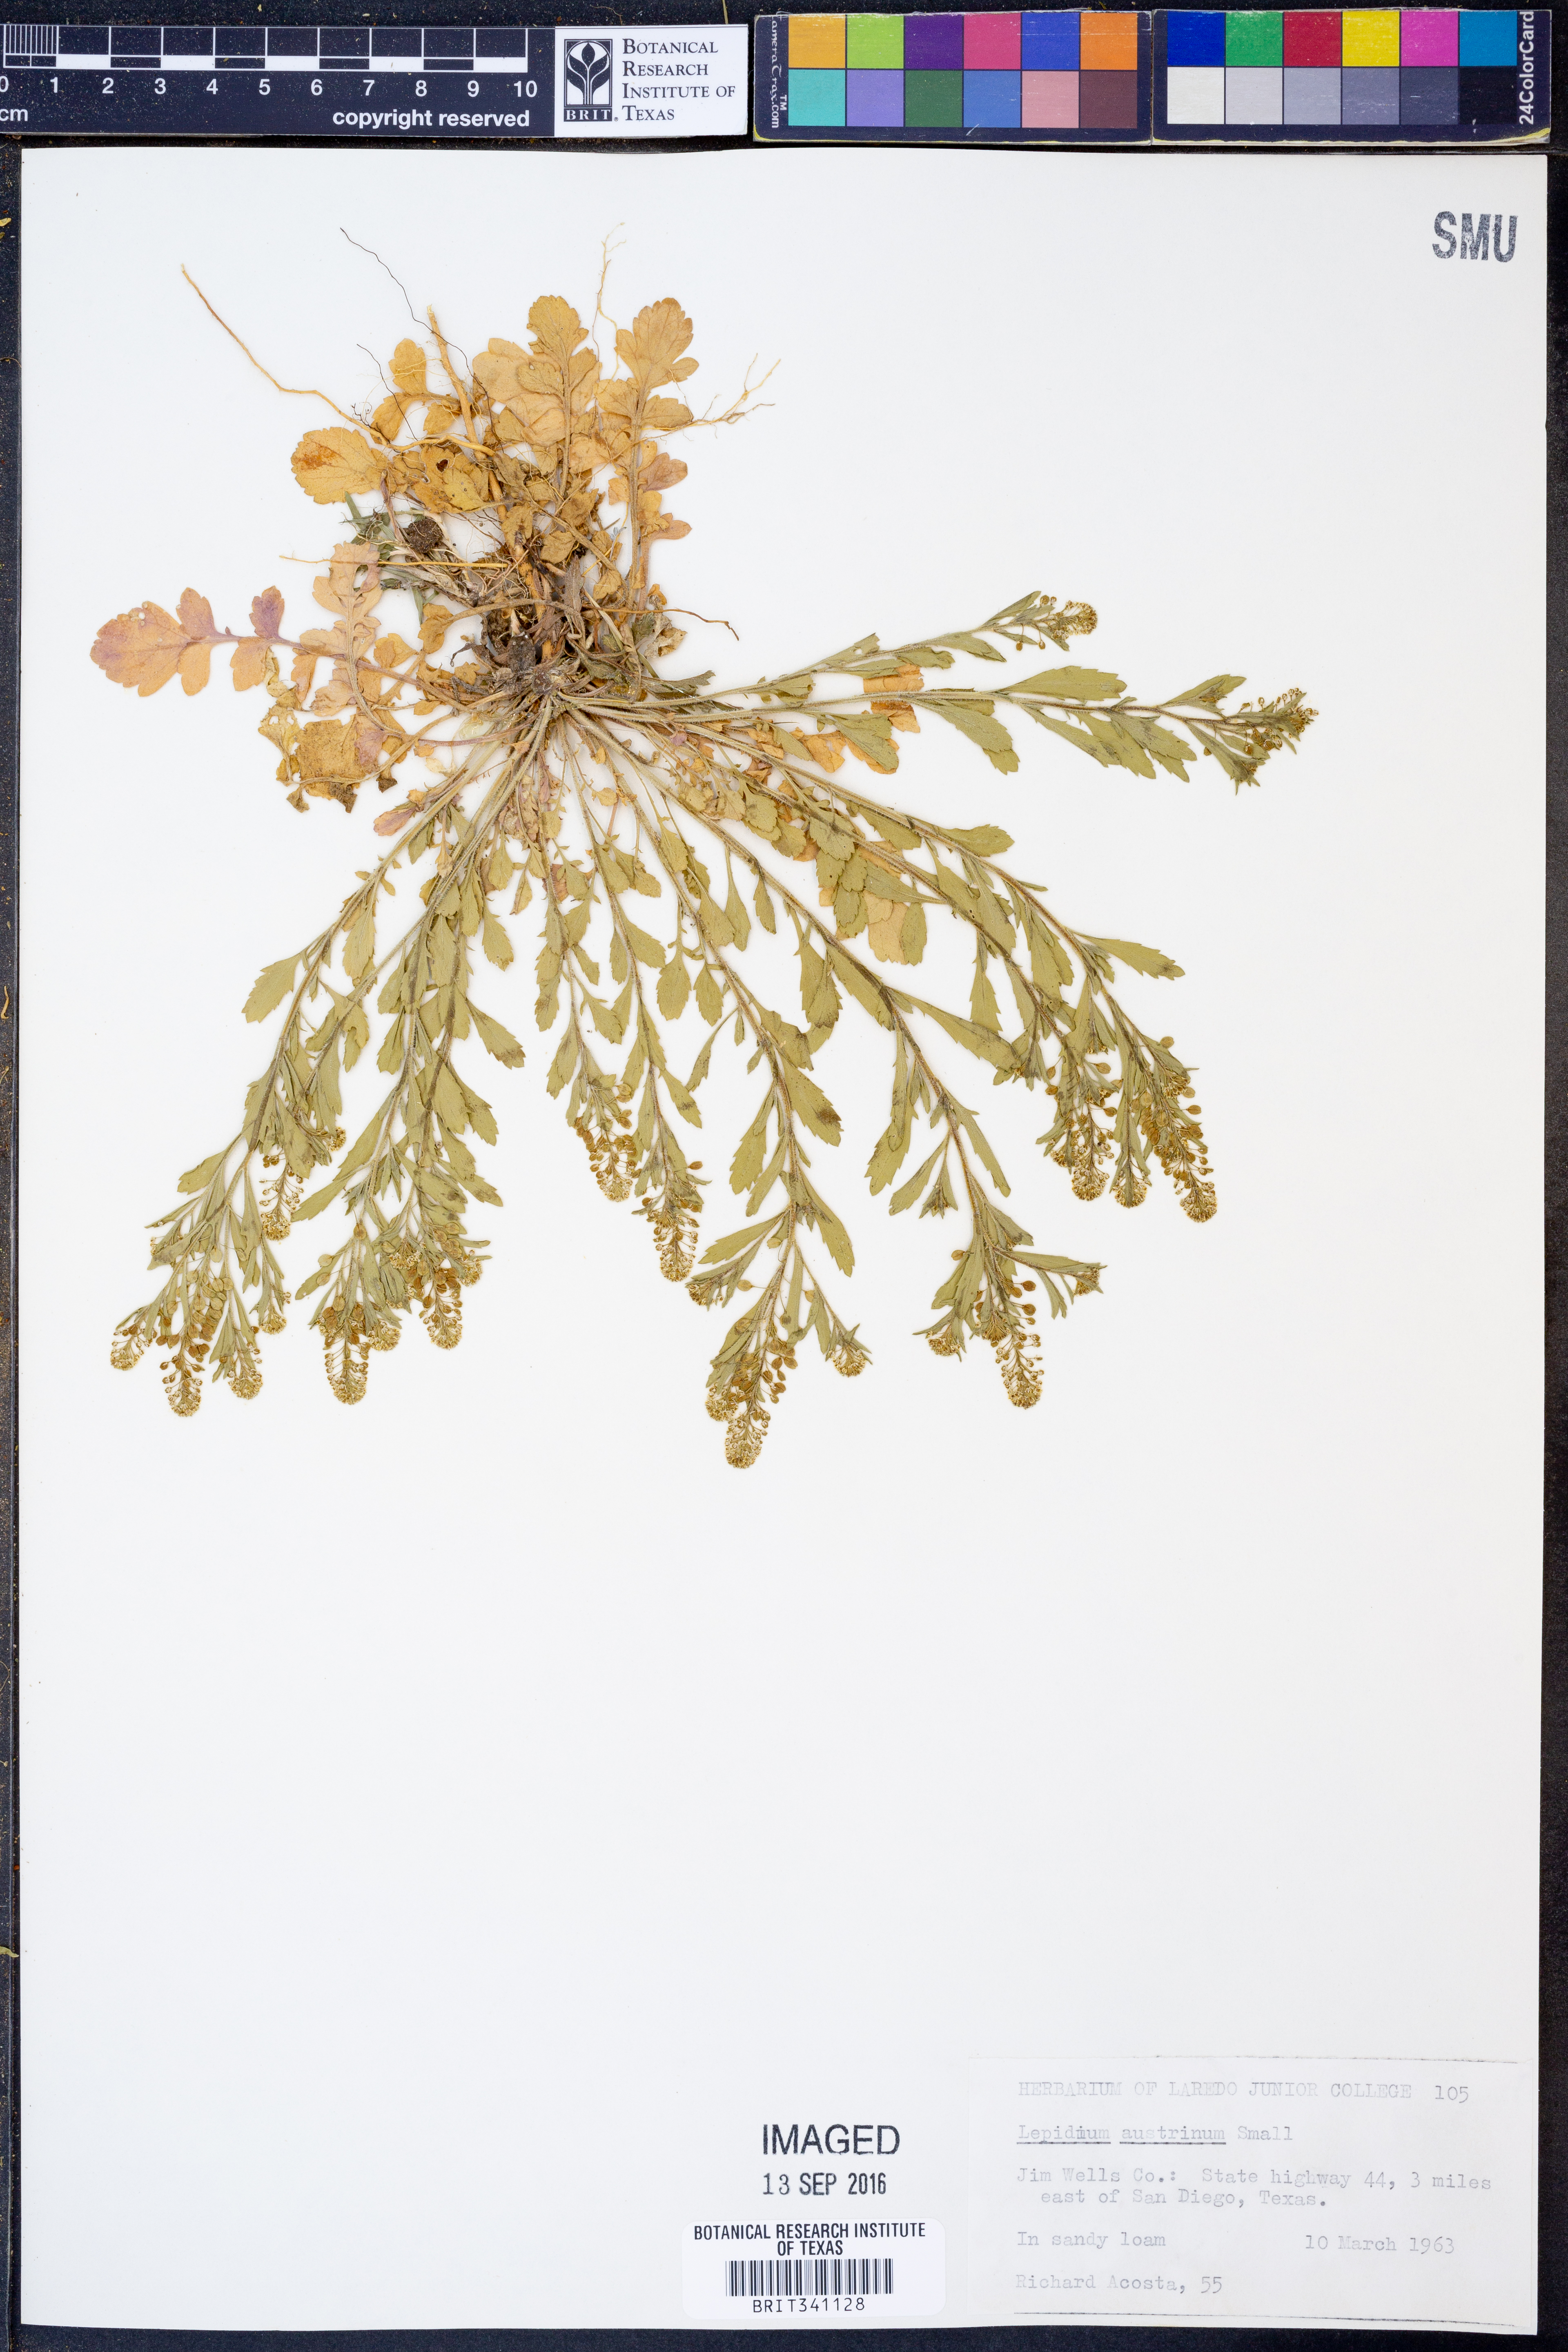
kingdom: Plantae
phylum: Tracheophyta
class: Magnoliopsida
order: Brassicales
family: Brassicaceae
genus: Lepidium
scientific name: Lepidium austrinum
